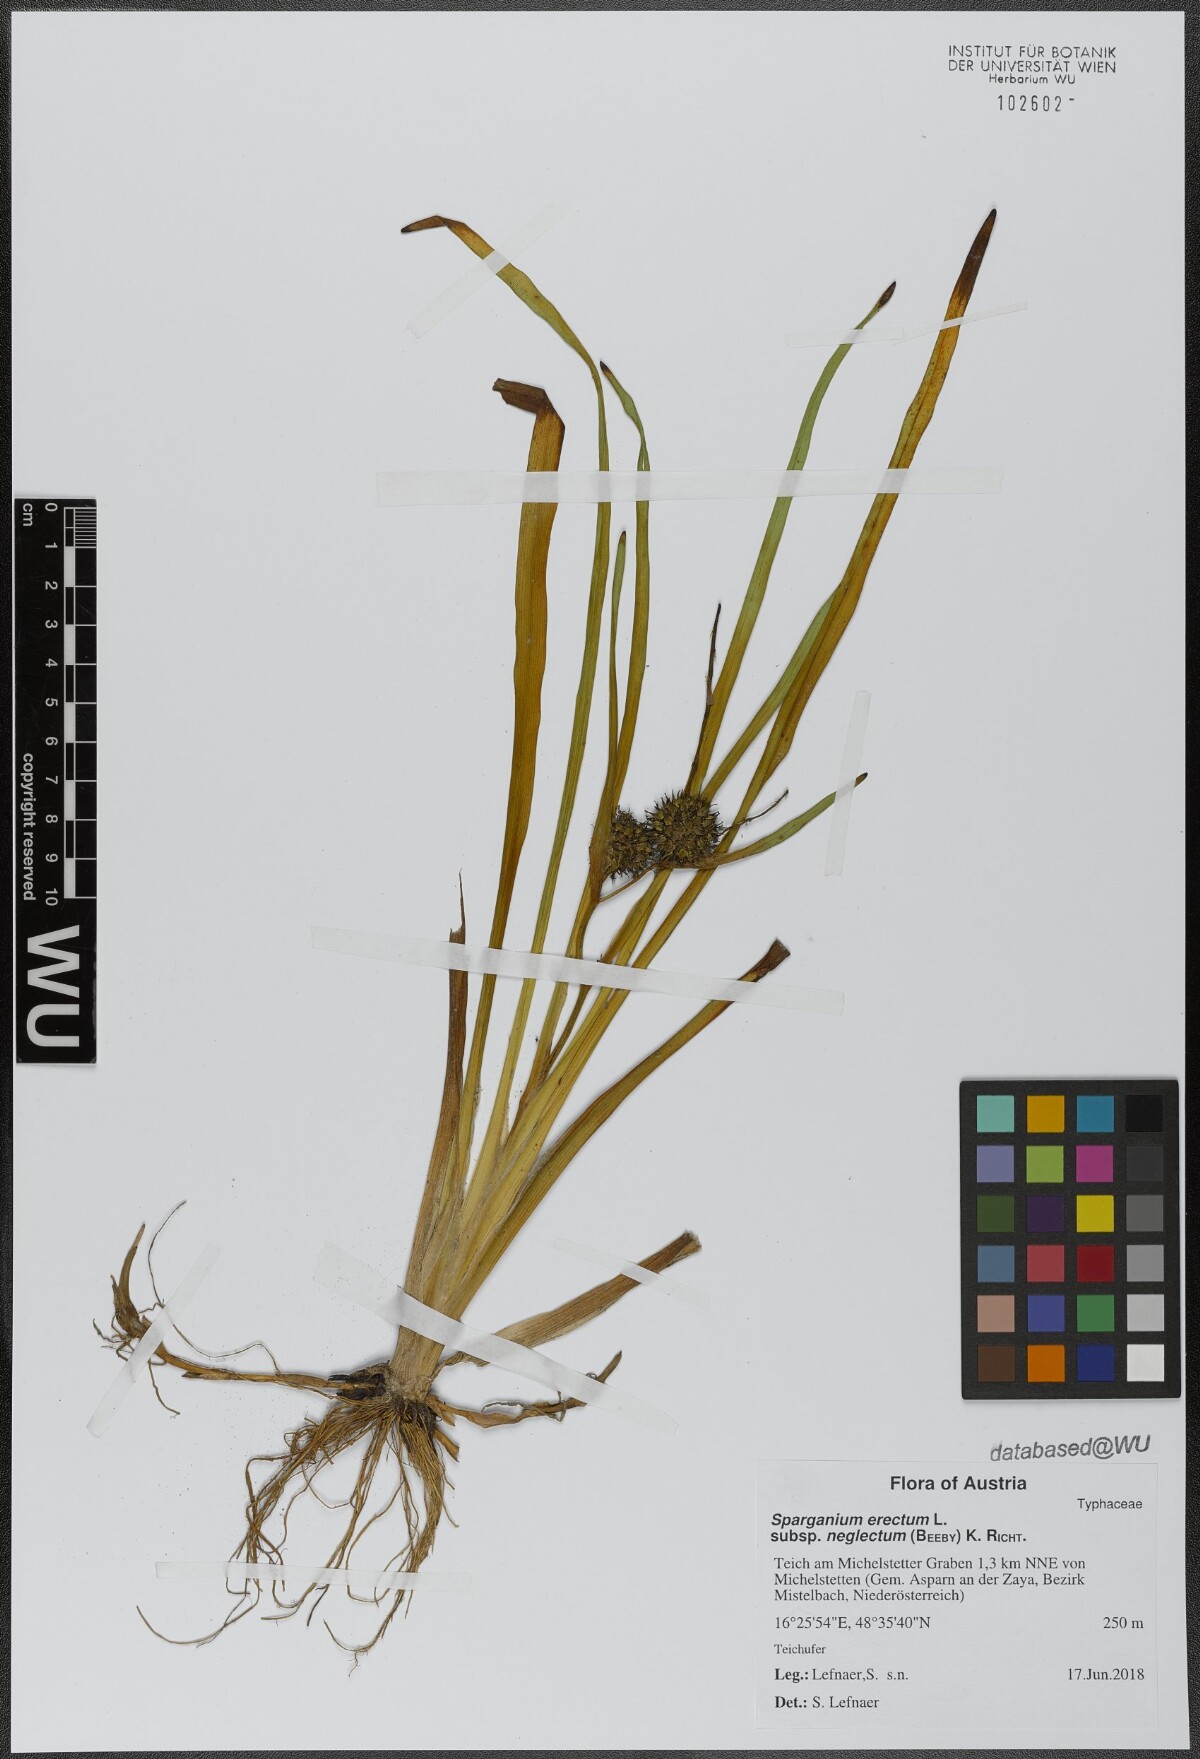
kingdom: Plantae
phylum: Tracheophyta
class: Liliopsida
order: Poales
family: Typhaceae
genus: Sparganium
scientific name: Sparganium erectum
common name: Branched bur-reed
